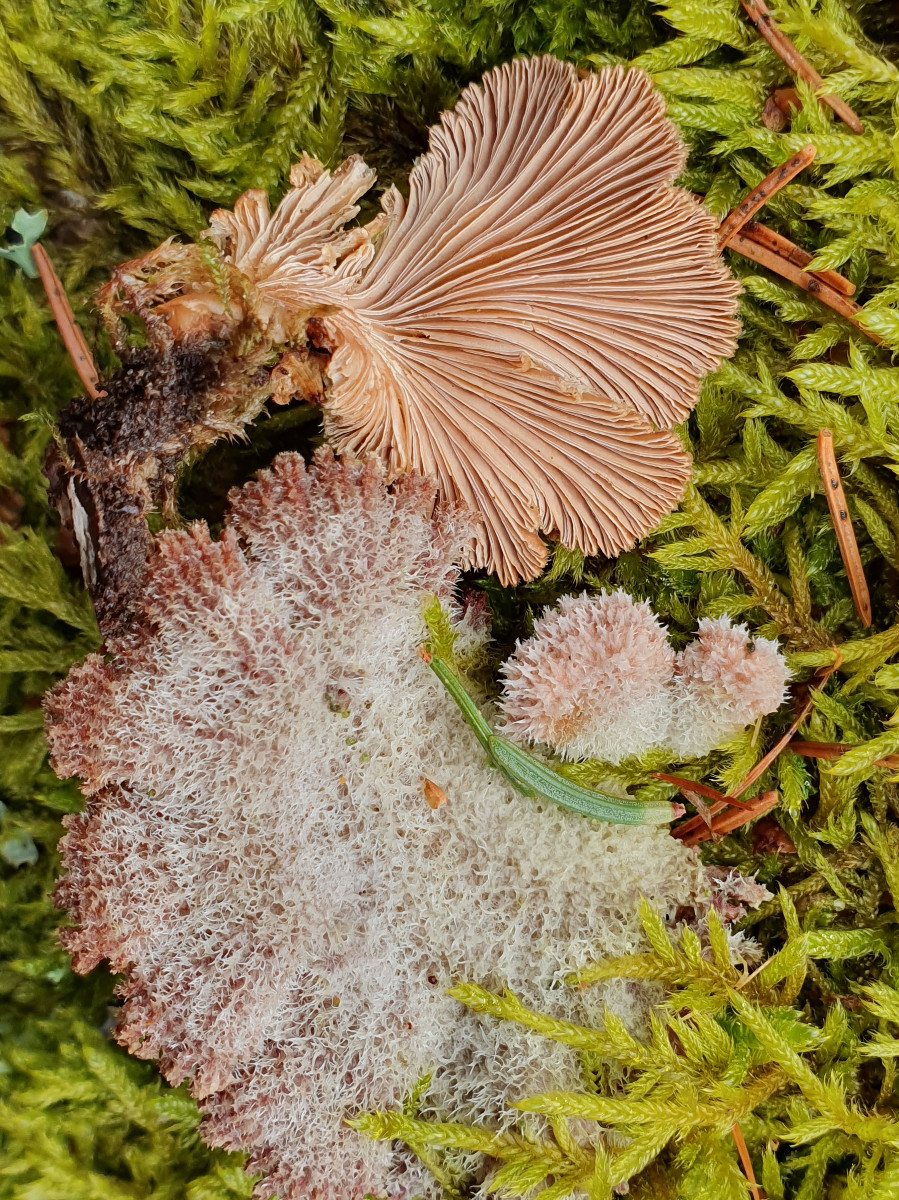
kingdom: Fungi
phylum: Basidiomycota
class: Agaricomycetes
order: Agaricales
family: Schizophyllaceae
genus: Schizophyllum
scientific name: Schizophyllum commune
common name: kløvblad
